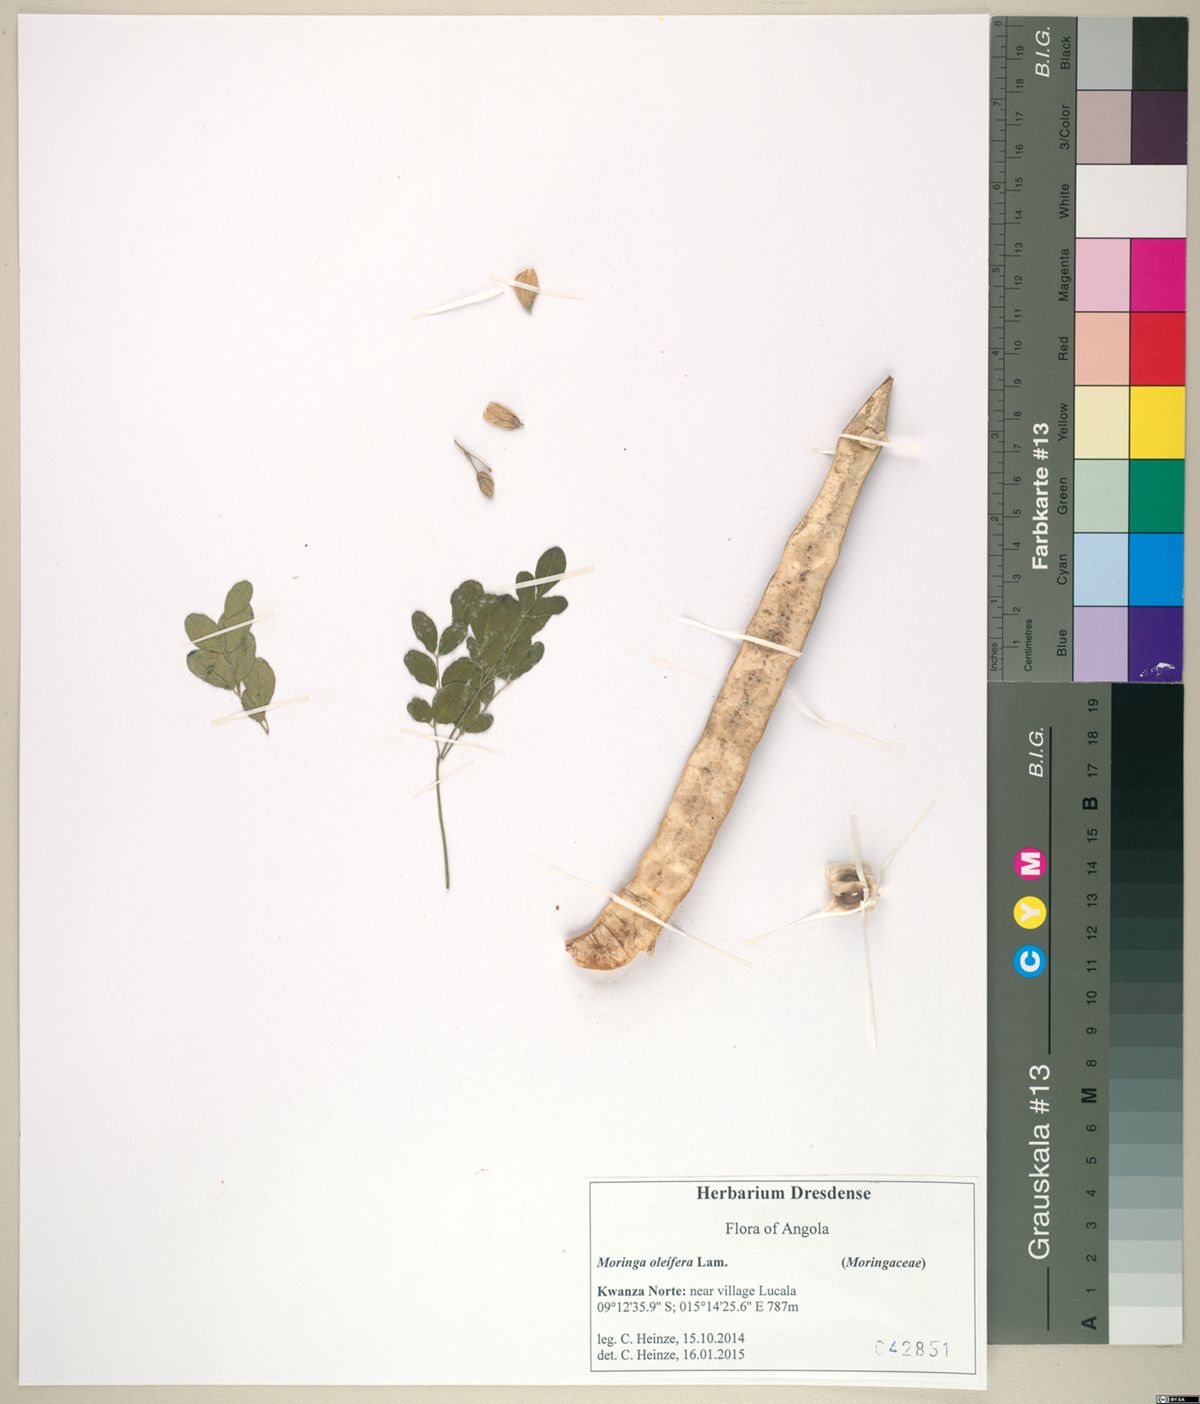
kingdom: Plantae
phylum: Tracheophyta
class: Magnoliopsida
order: Brassicales
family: Moringaceae
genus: Moringa
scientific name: Moringa oleifera
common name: Horseradish-tree
